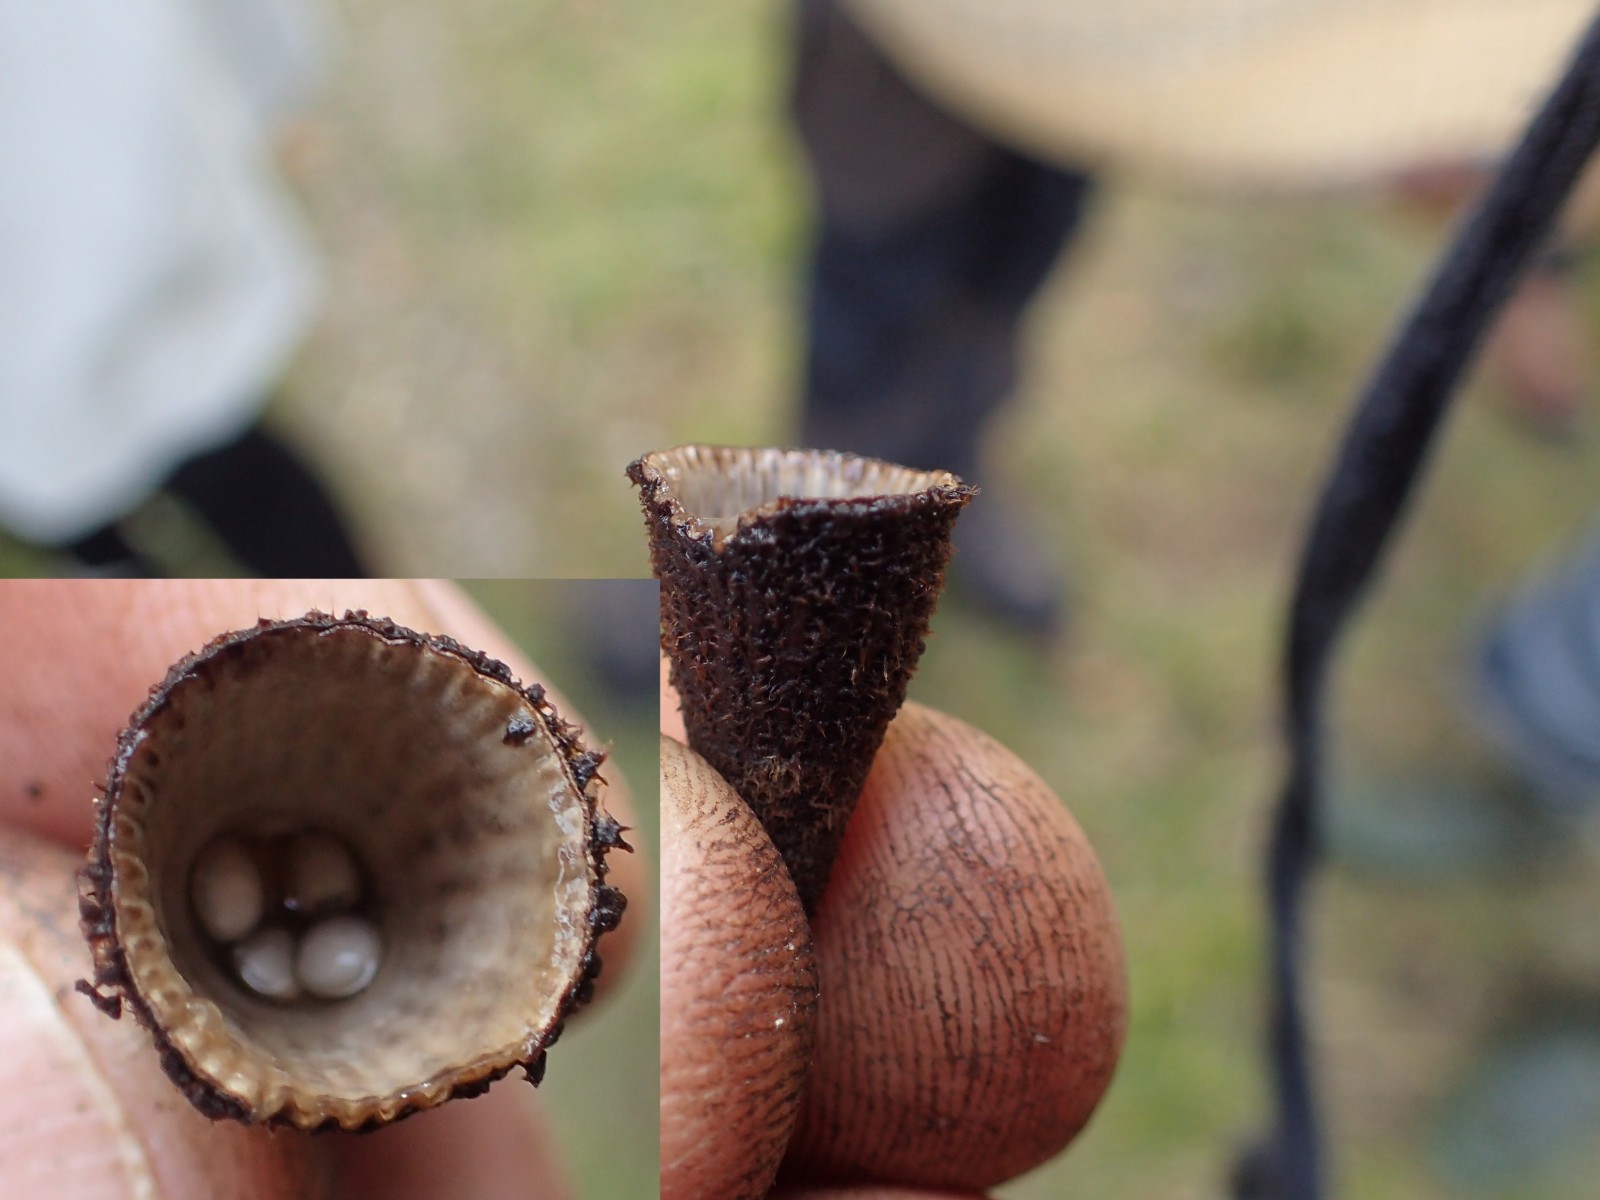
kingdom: Fungi
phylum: Basidiomycota
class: Agaricomycetes
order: Agaricales
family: Agaricaceae
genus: Cyathus
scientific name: Cyathus striatus
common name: stribet redesvamp
